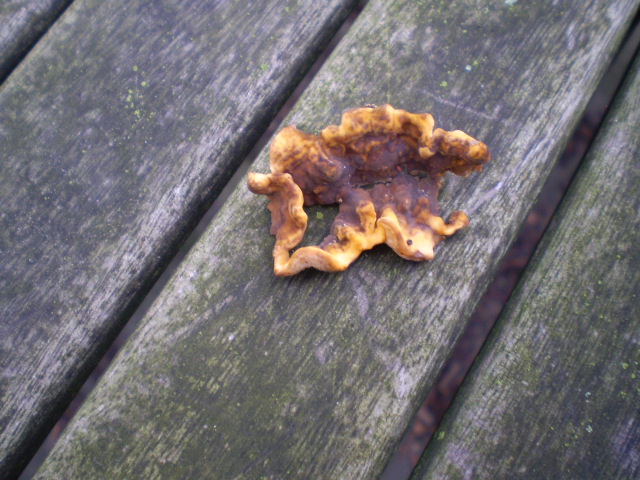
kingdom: Fungi
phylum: Basidiomycota
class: Agaricomycetes
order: Russulales
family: Stereaceae
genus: Stereum
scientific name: Stereum hirsutum
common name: håret lædersvamp
